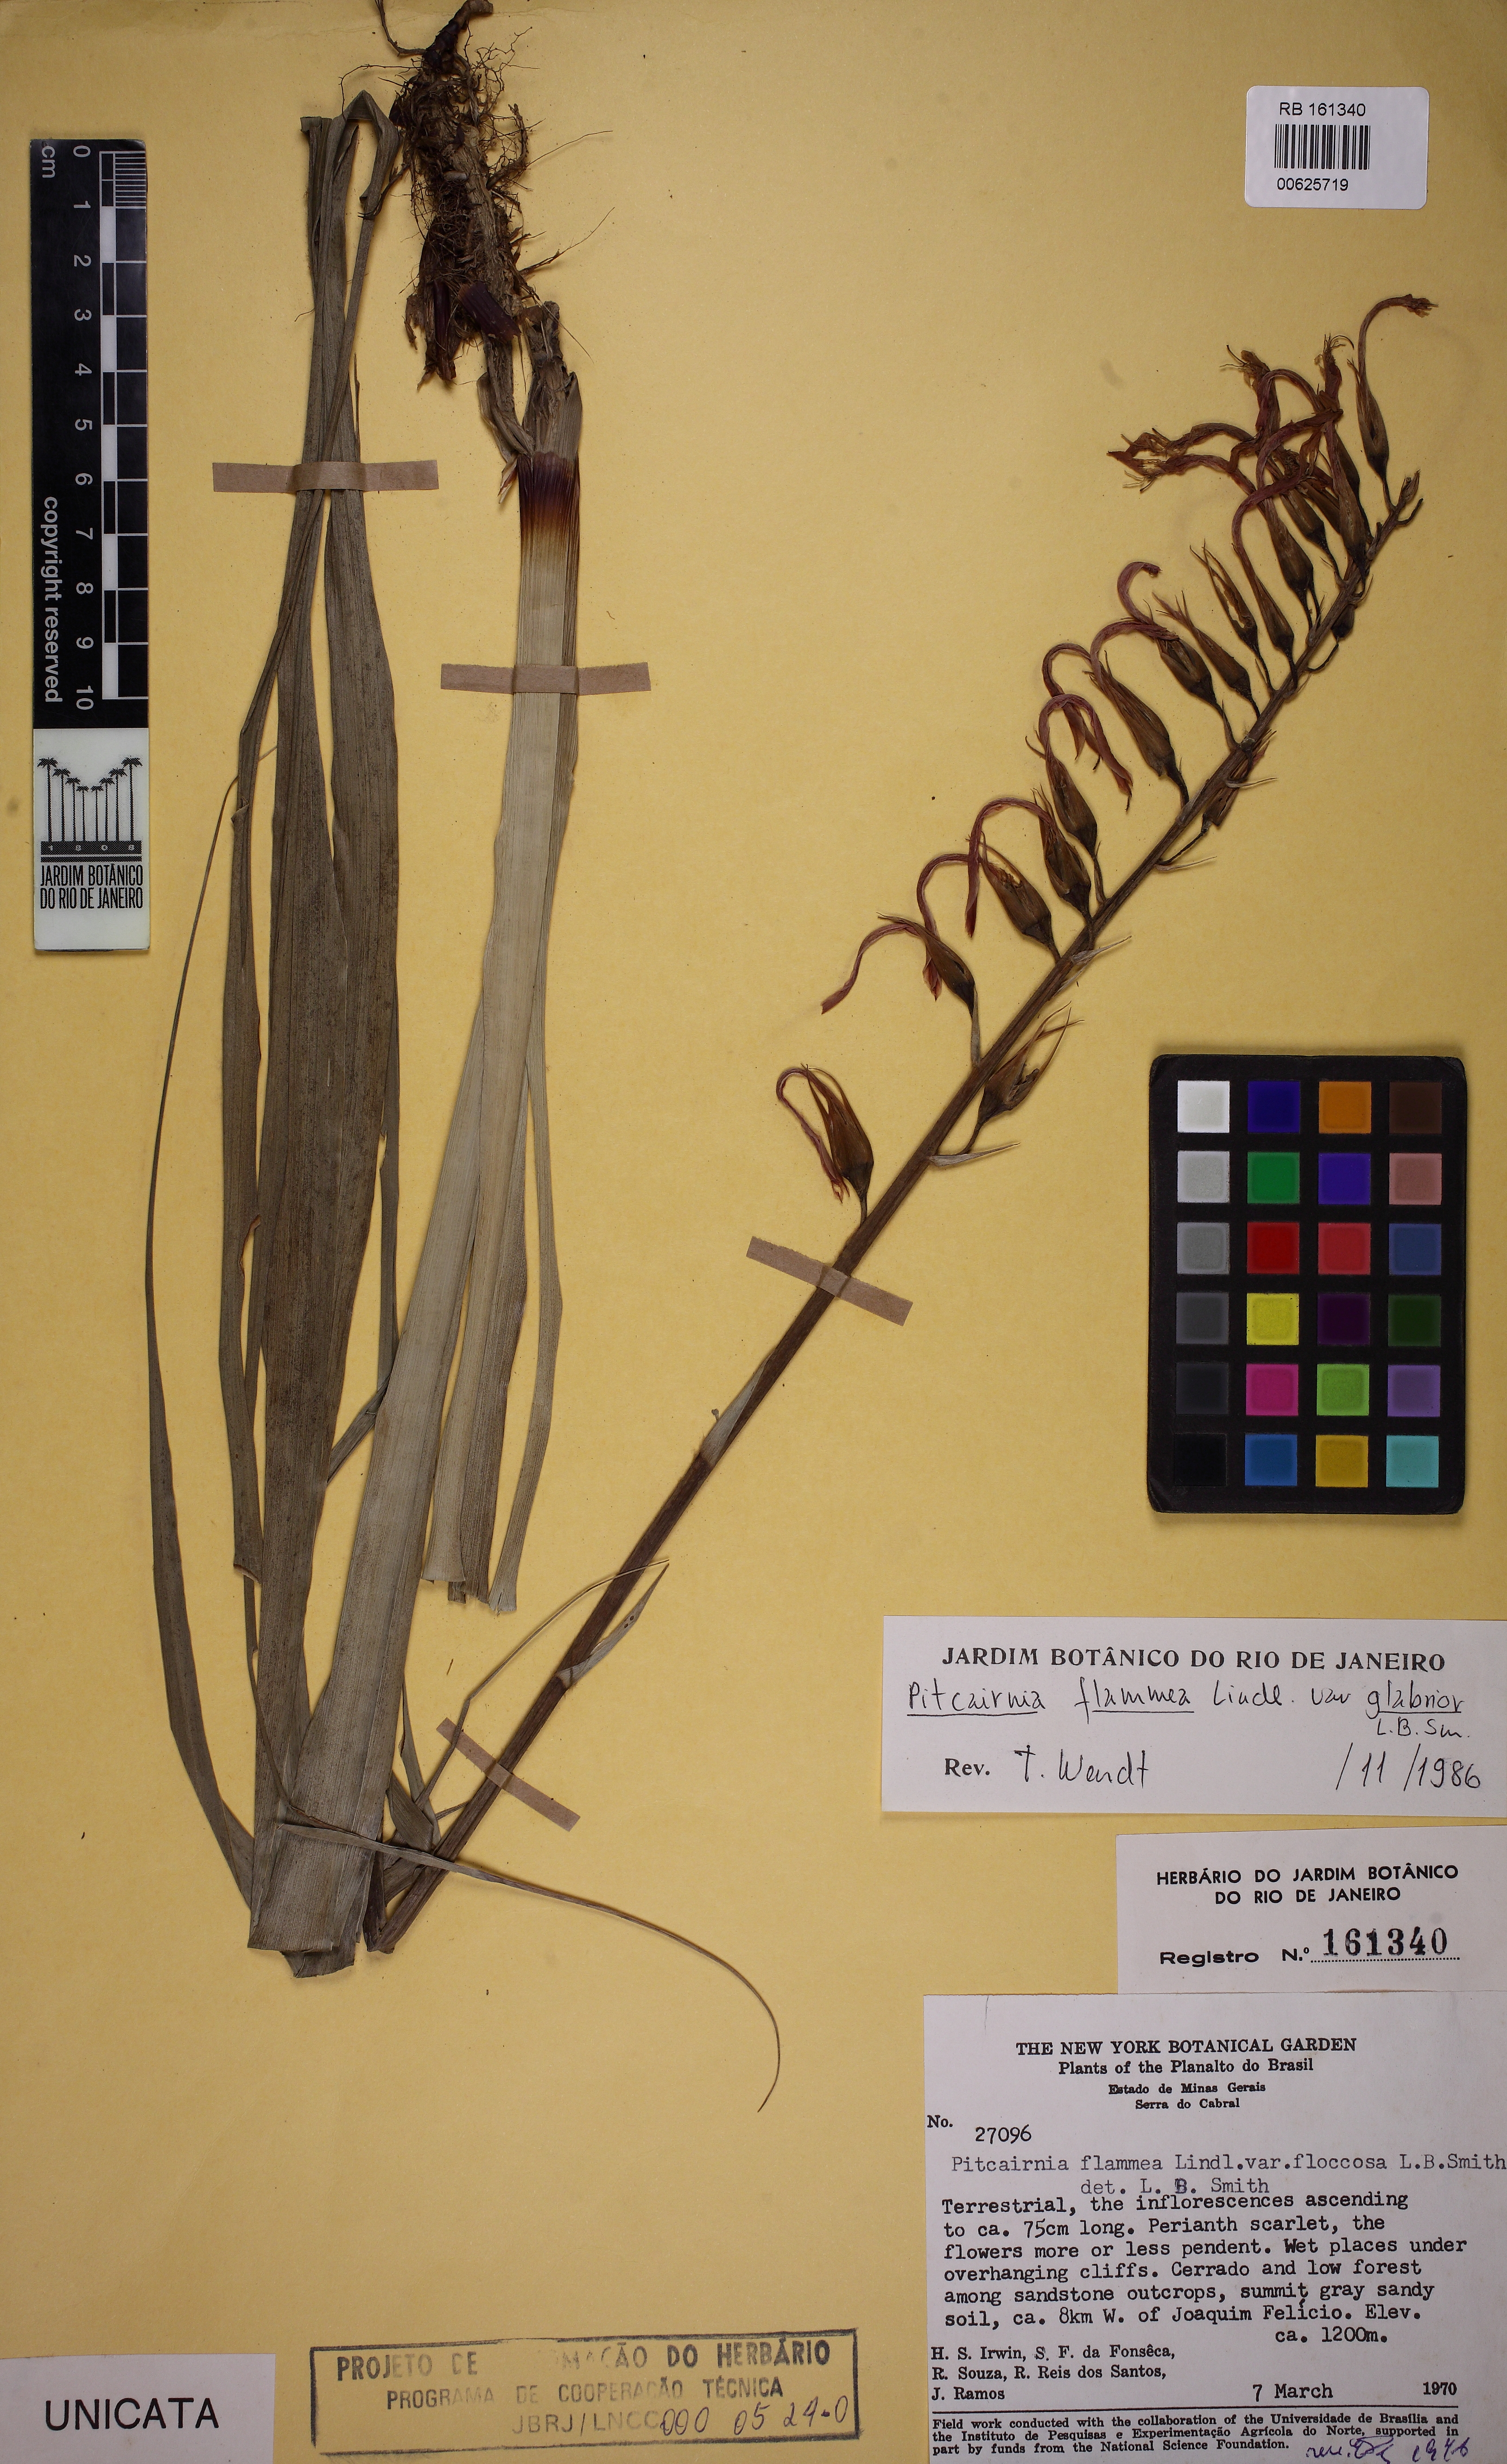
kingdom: Plantae
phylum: Tracheophyta
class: Liliopsida
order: Poales
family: Bromeliaceae
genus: Pitcairnia
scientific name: Pitcairnia flammea
